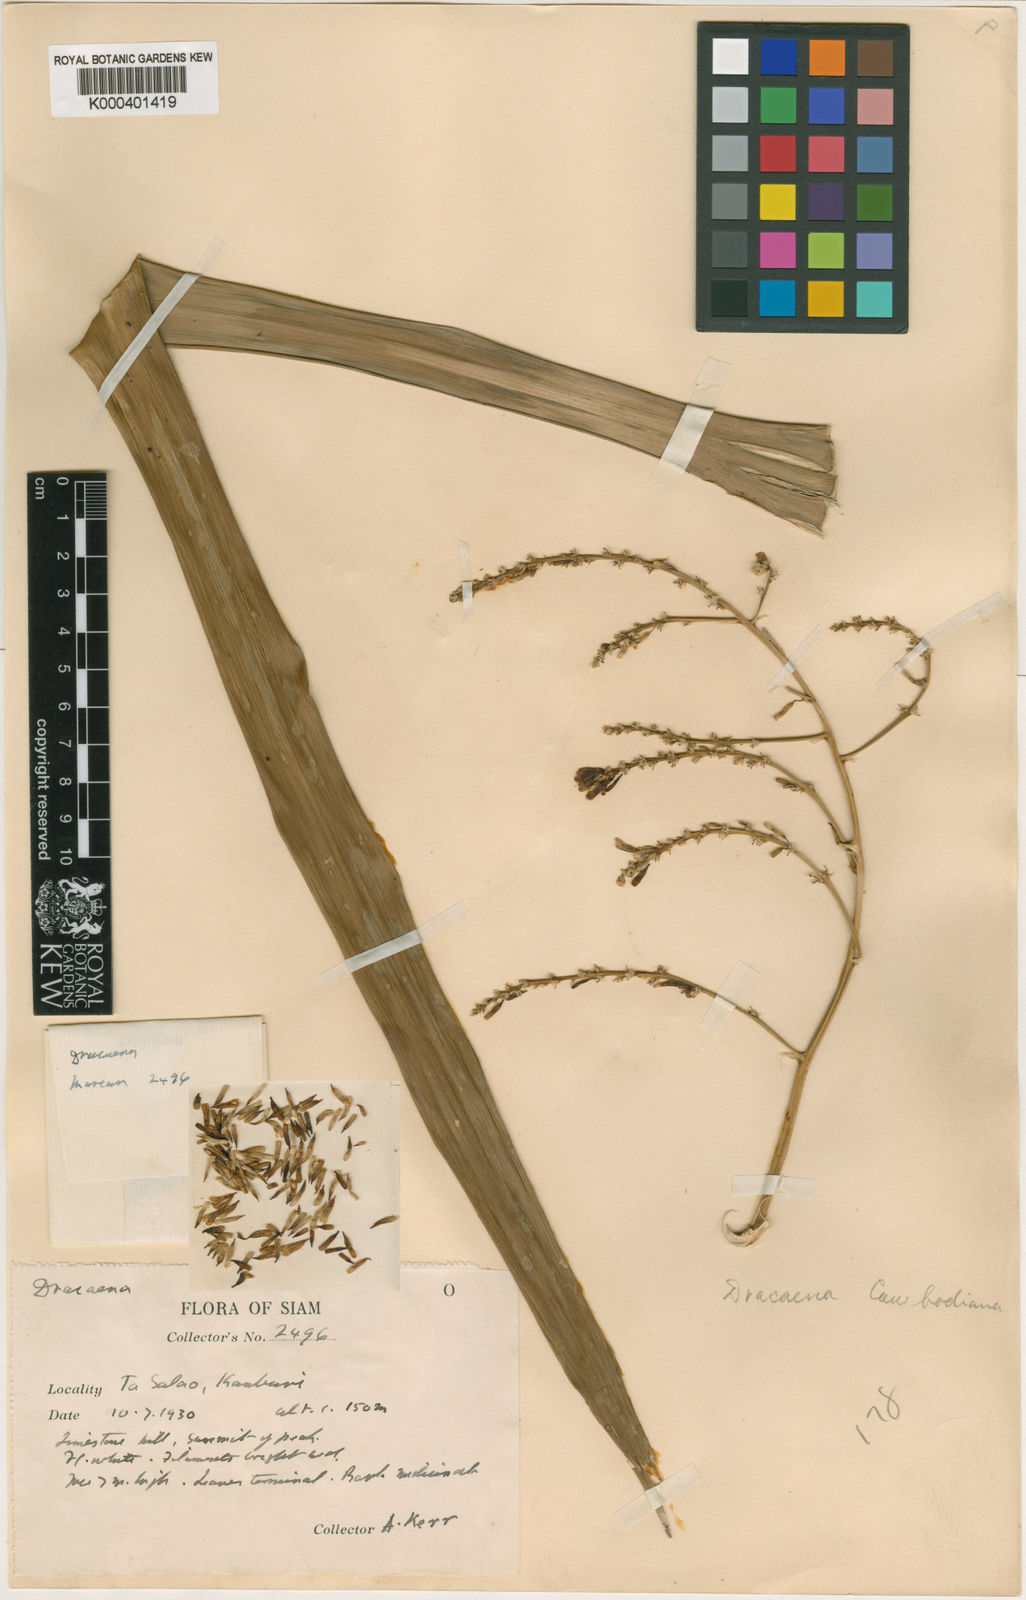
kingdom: Plantae
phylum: Tracheophyta
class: Liliopsida
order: Asparagales
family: Asparagaceae
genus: Dracaena
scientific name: Dracaena cambodiana
